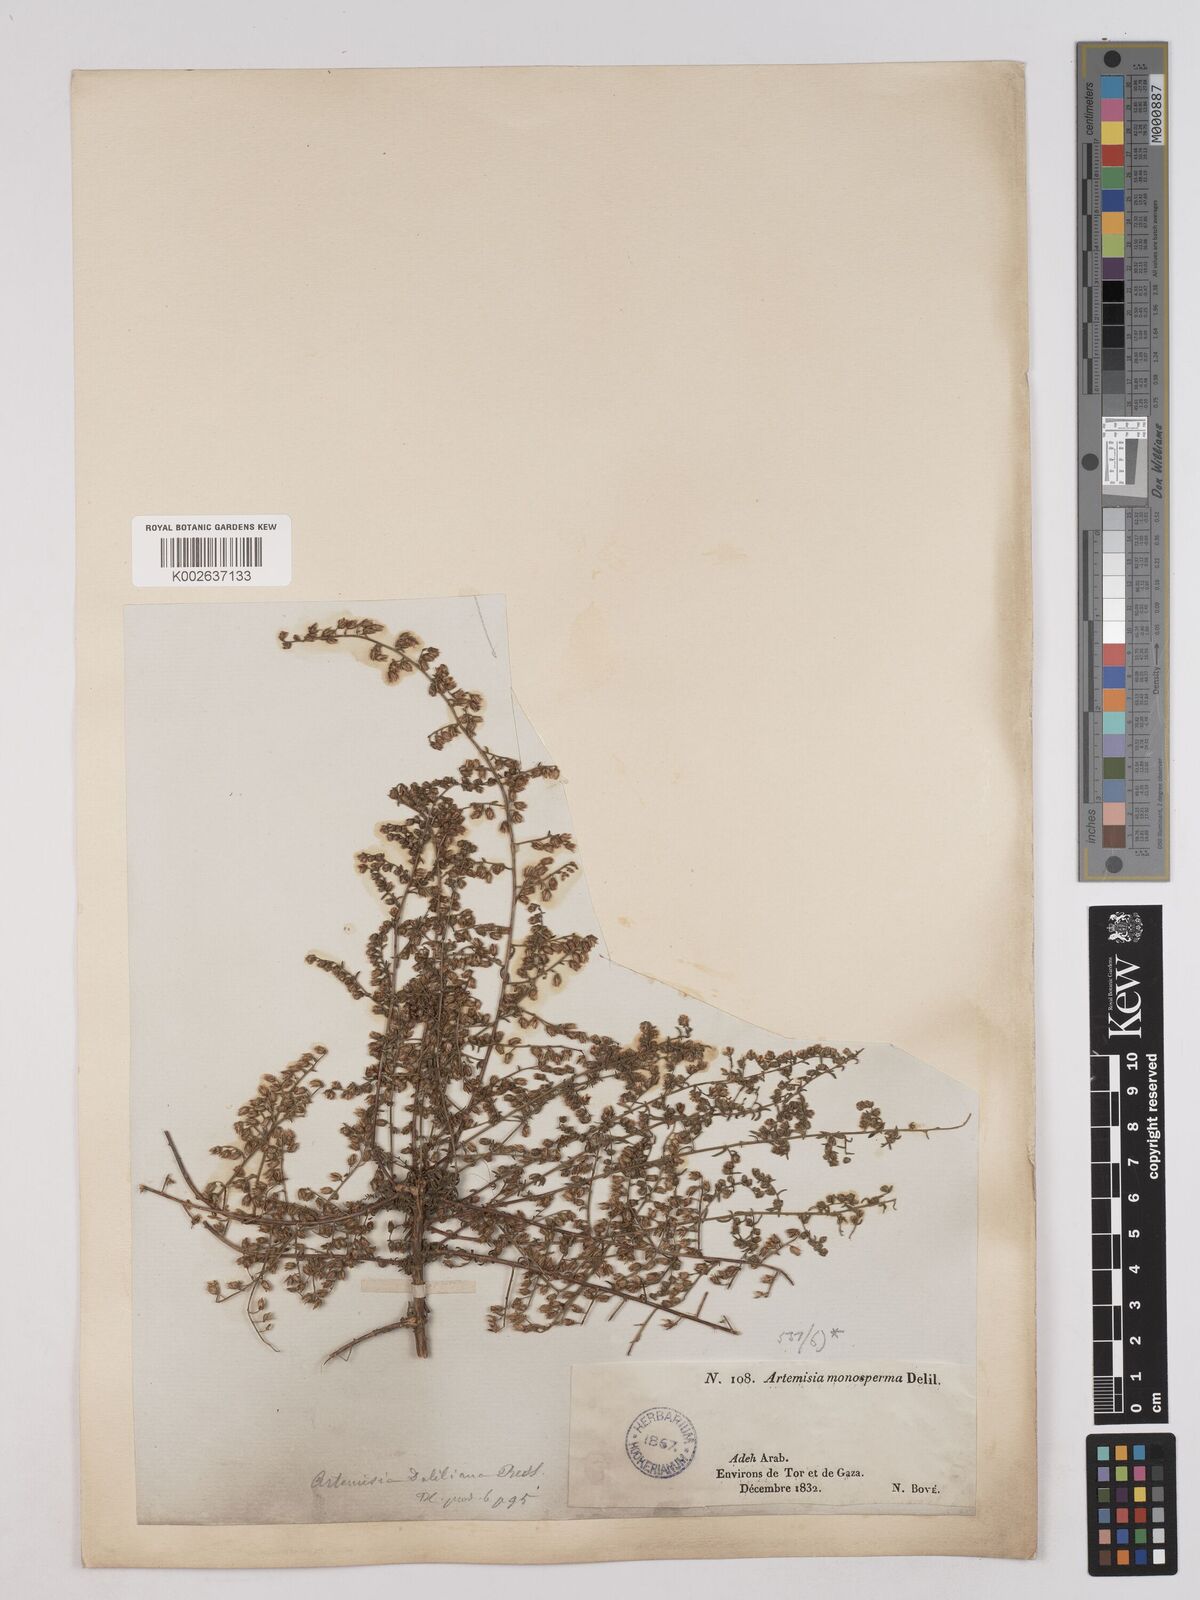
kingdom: Plantae
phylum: Tracheophyta
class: Magnoliopsida
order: Asterales
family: Asteraceae
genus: Artemisia
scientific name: Artemisia monosperma
